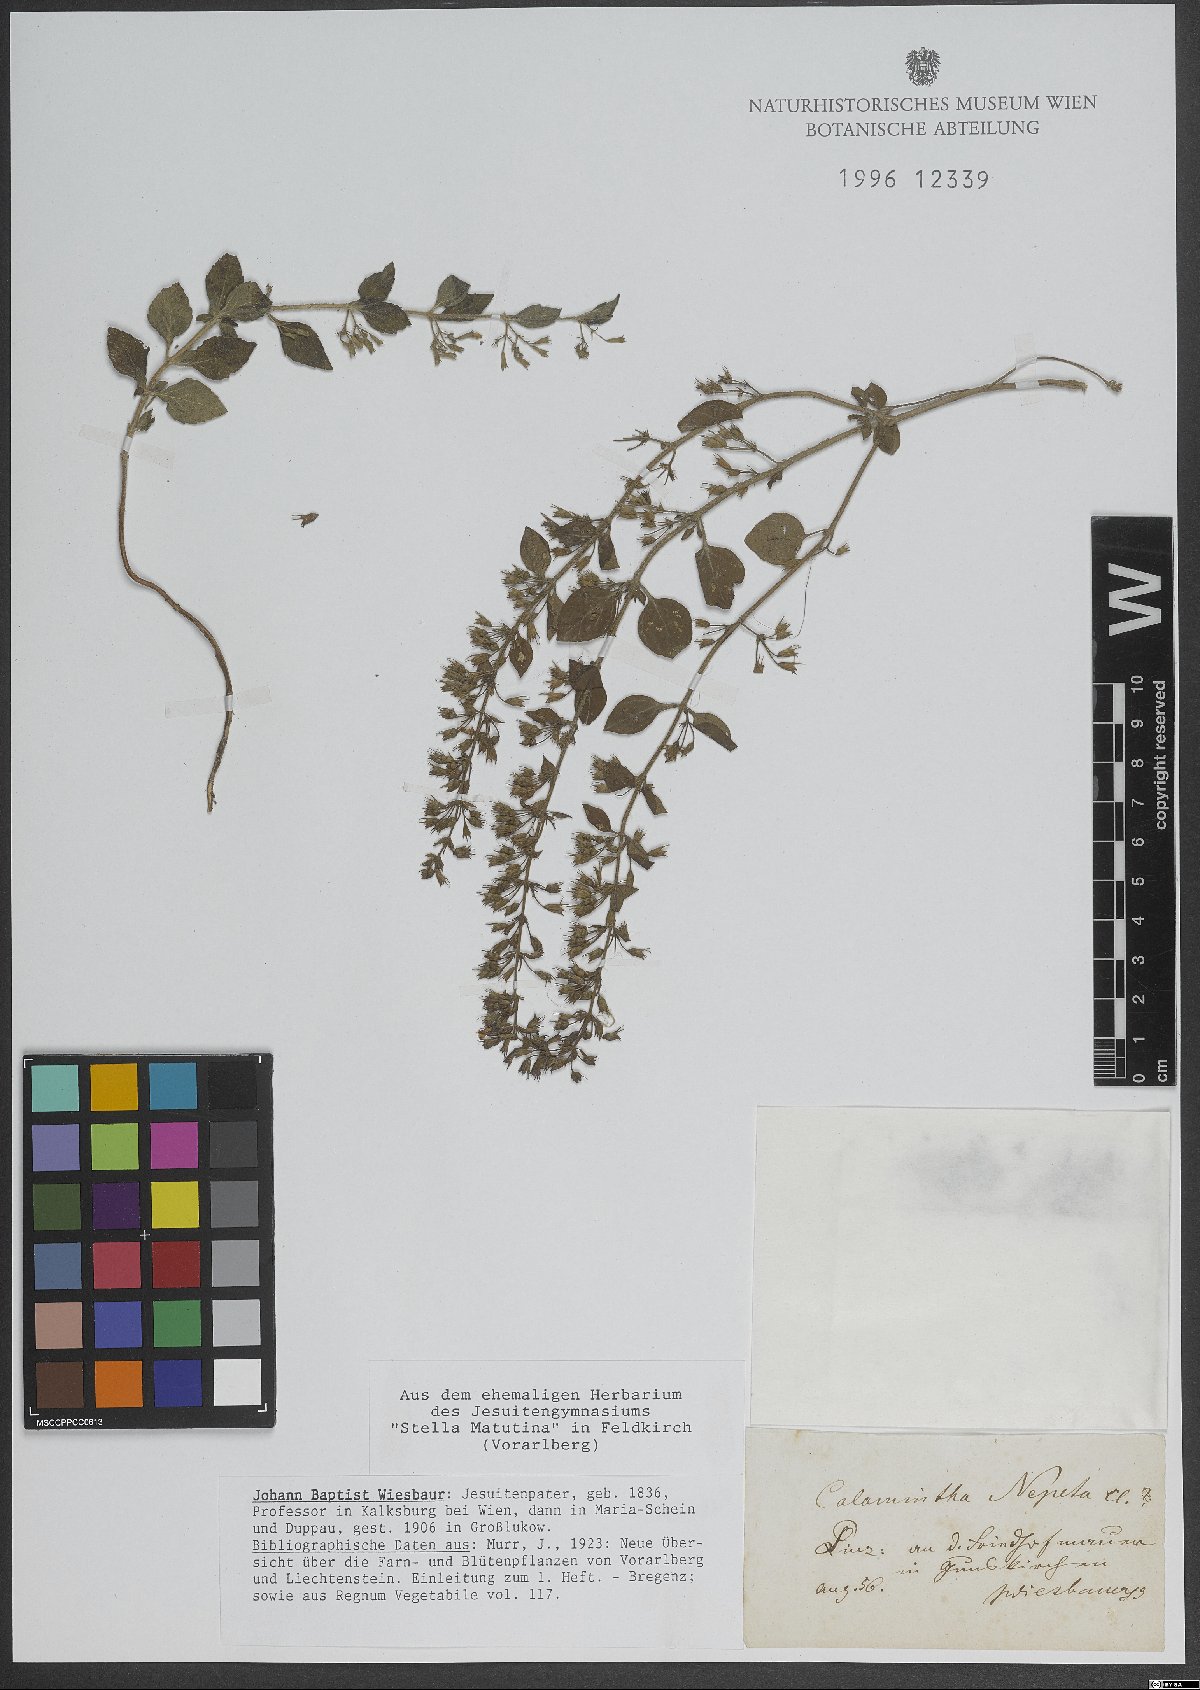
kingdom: Plantae
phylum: Tracheophyta
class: Magnoliopsida
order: Lamiales
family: Lamiaceae
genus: Clinopodium
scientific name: Clinopodium nepeta
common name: Lesser calamint
